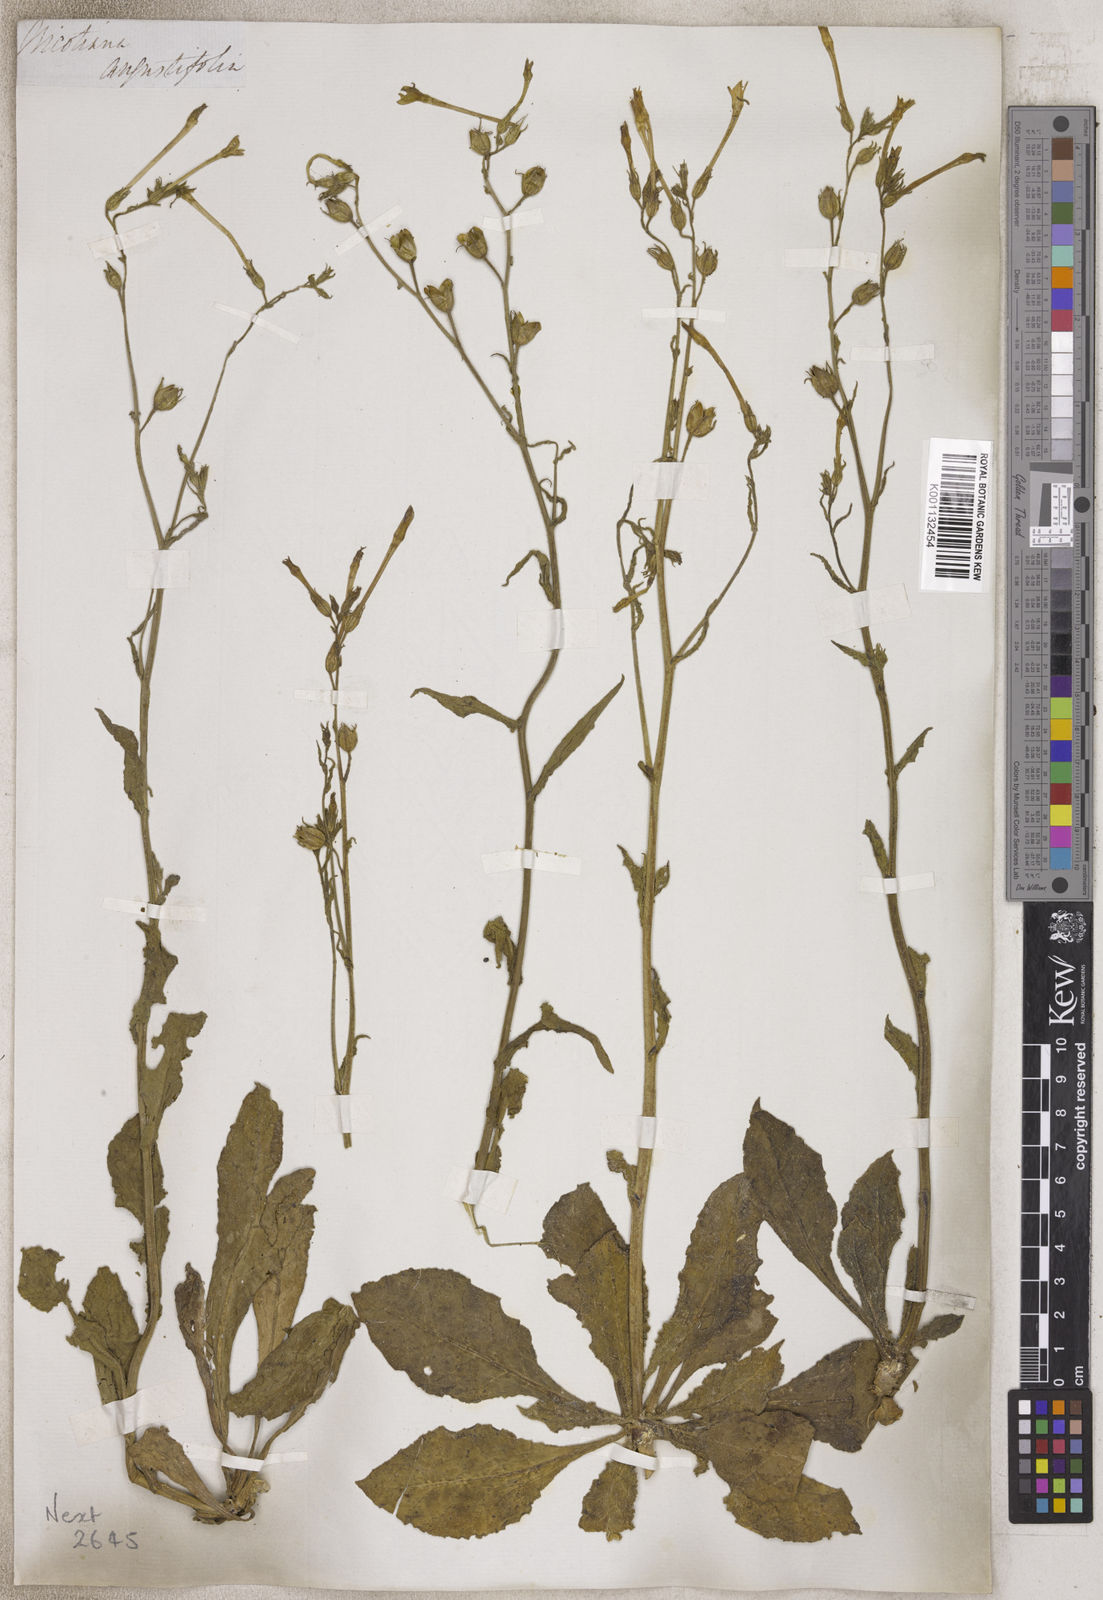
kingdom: Plantae
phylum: Tracheophyta
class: Magnoliopsida
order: Solanales
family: Solanaceae
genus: Nicotiana
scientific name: Nicotiana
